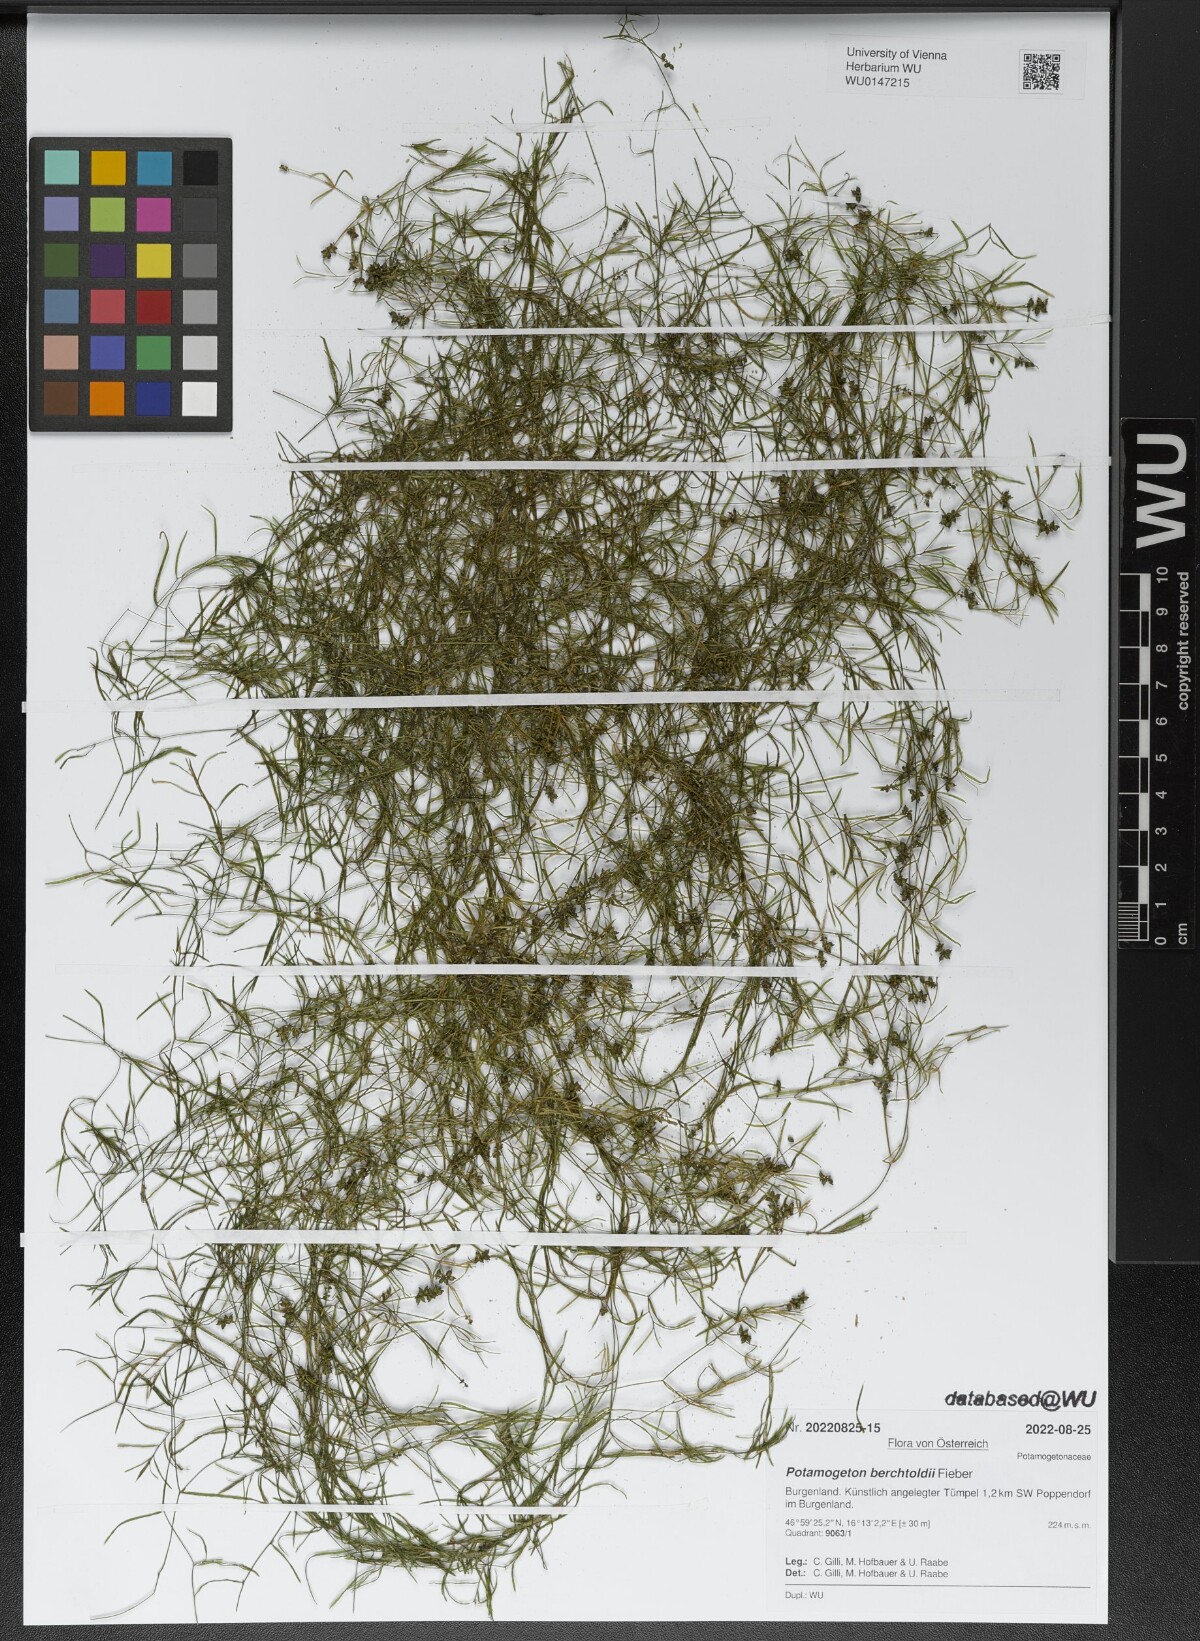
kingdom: Plantae
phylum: Tracheophyta
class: Liliopsida
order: Alismatales
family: Potamogetonaceae
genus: Potamogeton
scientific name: Potamogeton berchtoldii
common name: Small pondweed
